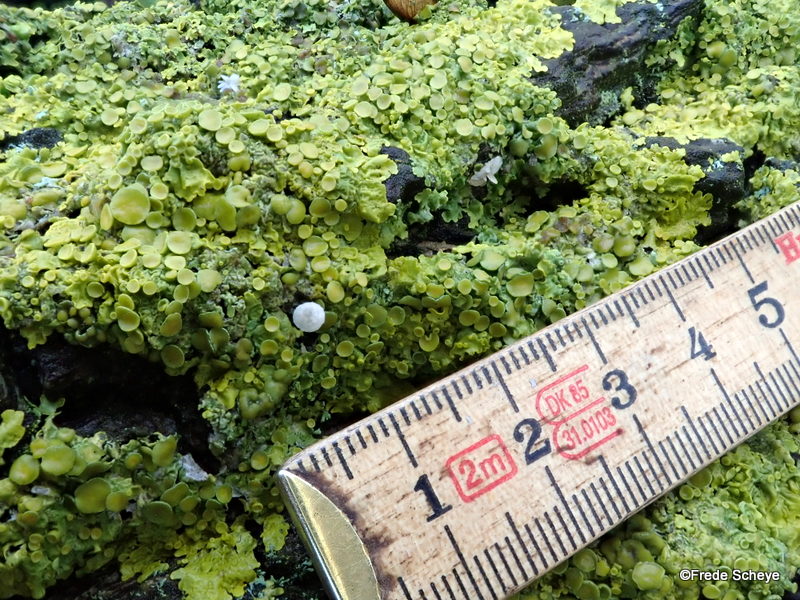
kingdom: Fungi
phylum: Ascomycota
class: Lecanoromycetes
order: Teloschistales
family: Teloschistaceae
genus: Xanthoria
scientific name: Xanthoria parietina
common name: almindelig væggelav
